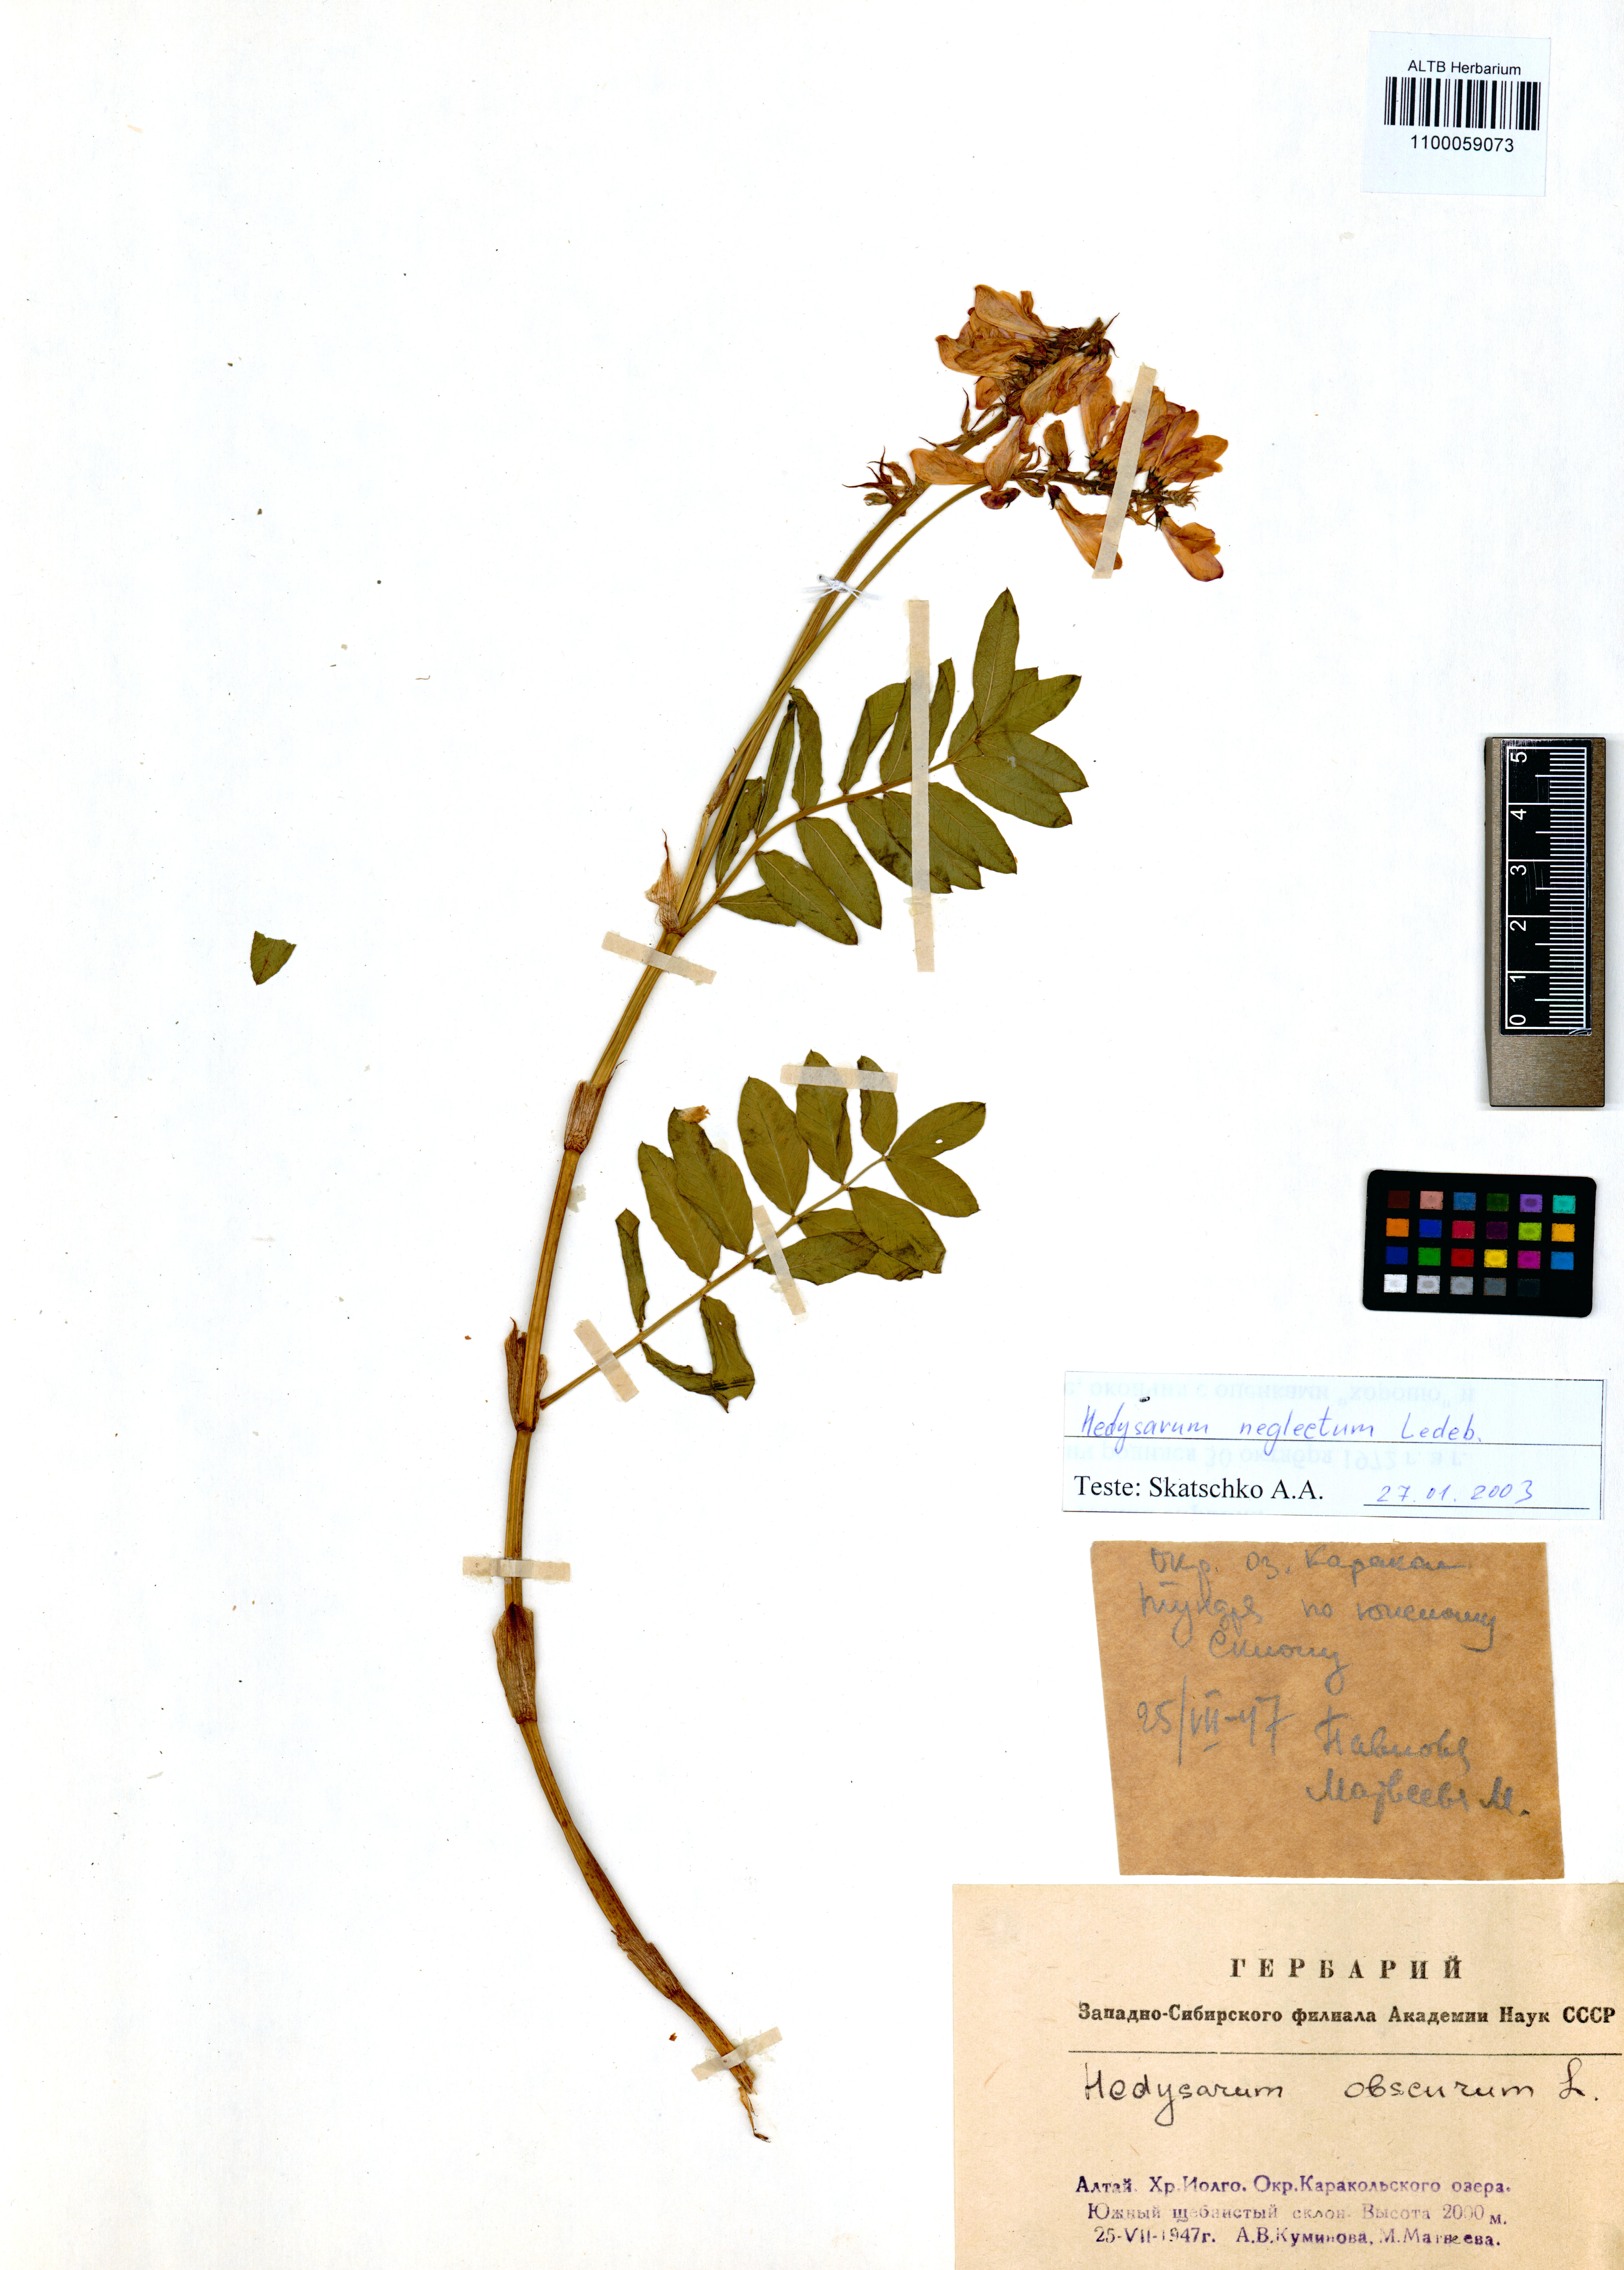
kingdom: Plantae
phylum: Tracheophyta
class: Magnoliopsida
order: Fabales
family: Fabaceae
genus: Hedysarum
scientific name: Hedysarum neglectum
